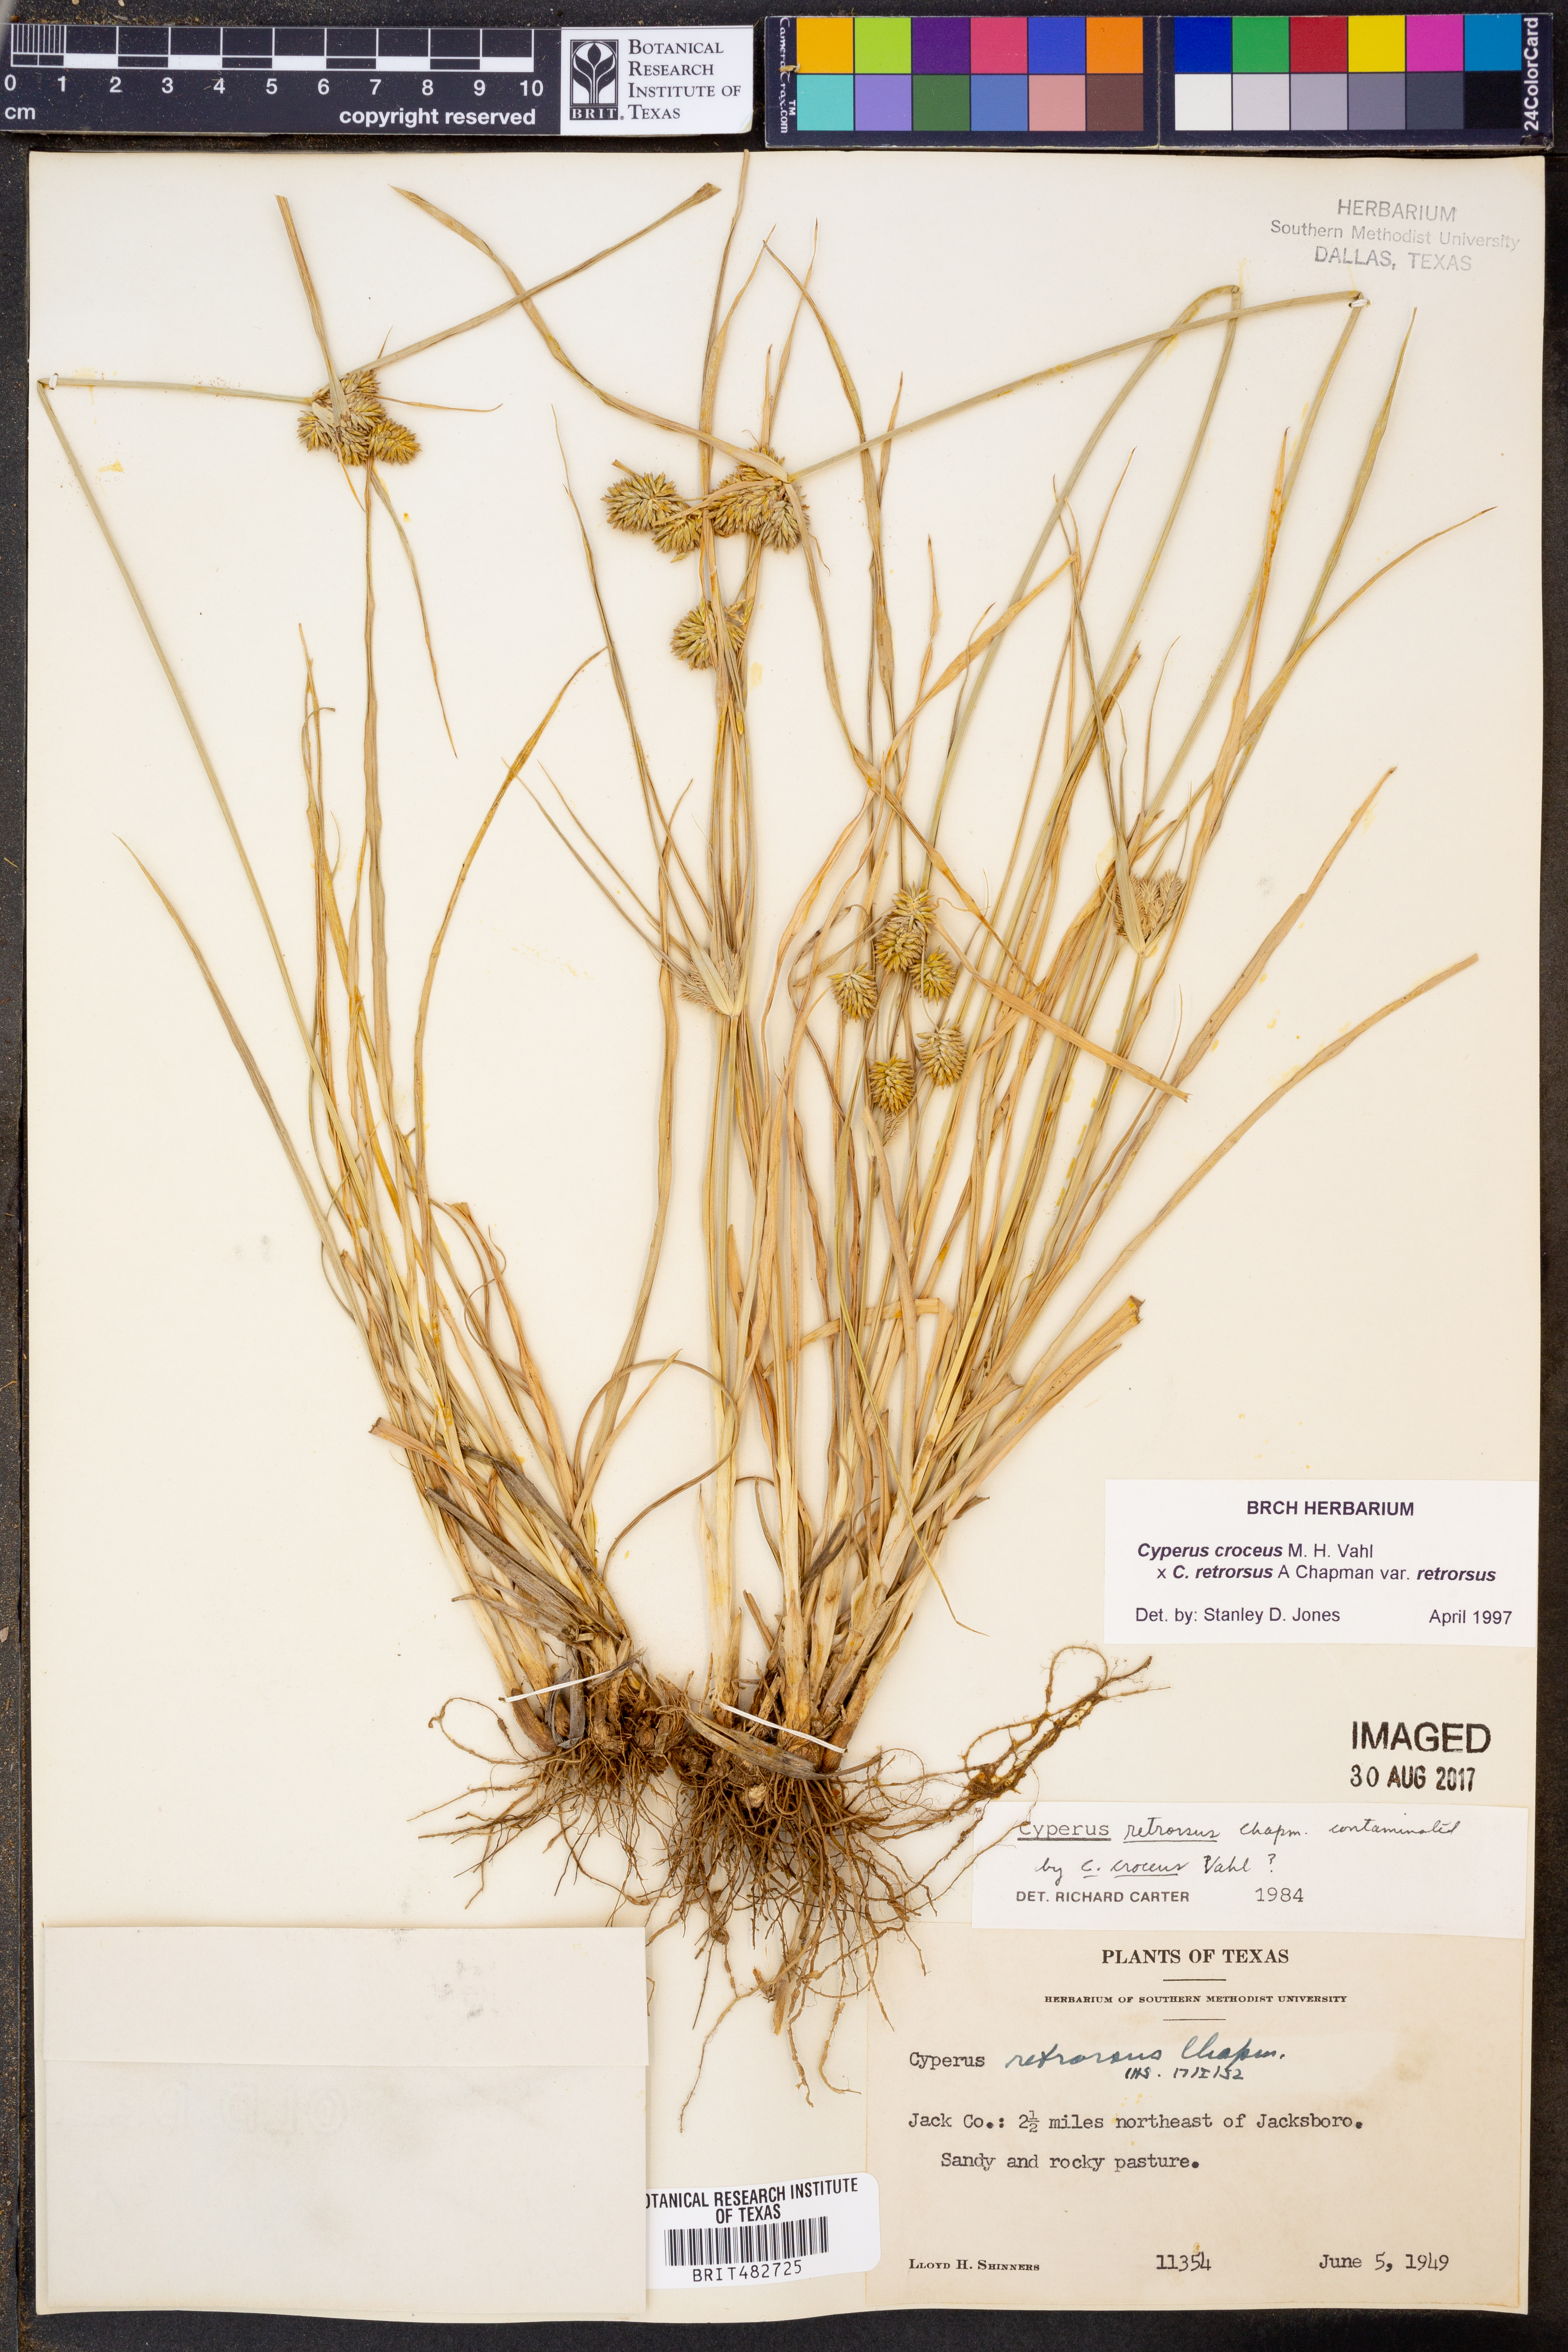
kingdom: Plantae
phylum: Tracheophyta
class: Liliopsida
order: Poales
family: Cyperaceae
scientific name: Cyperaceae
